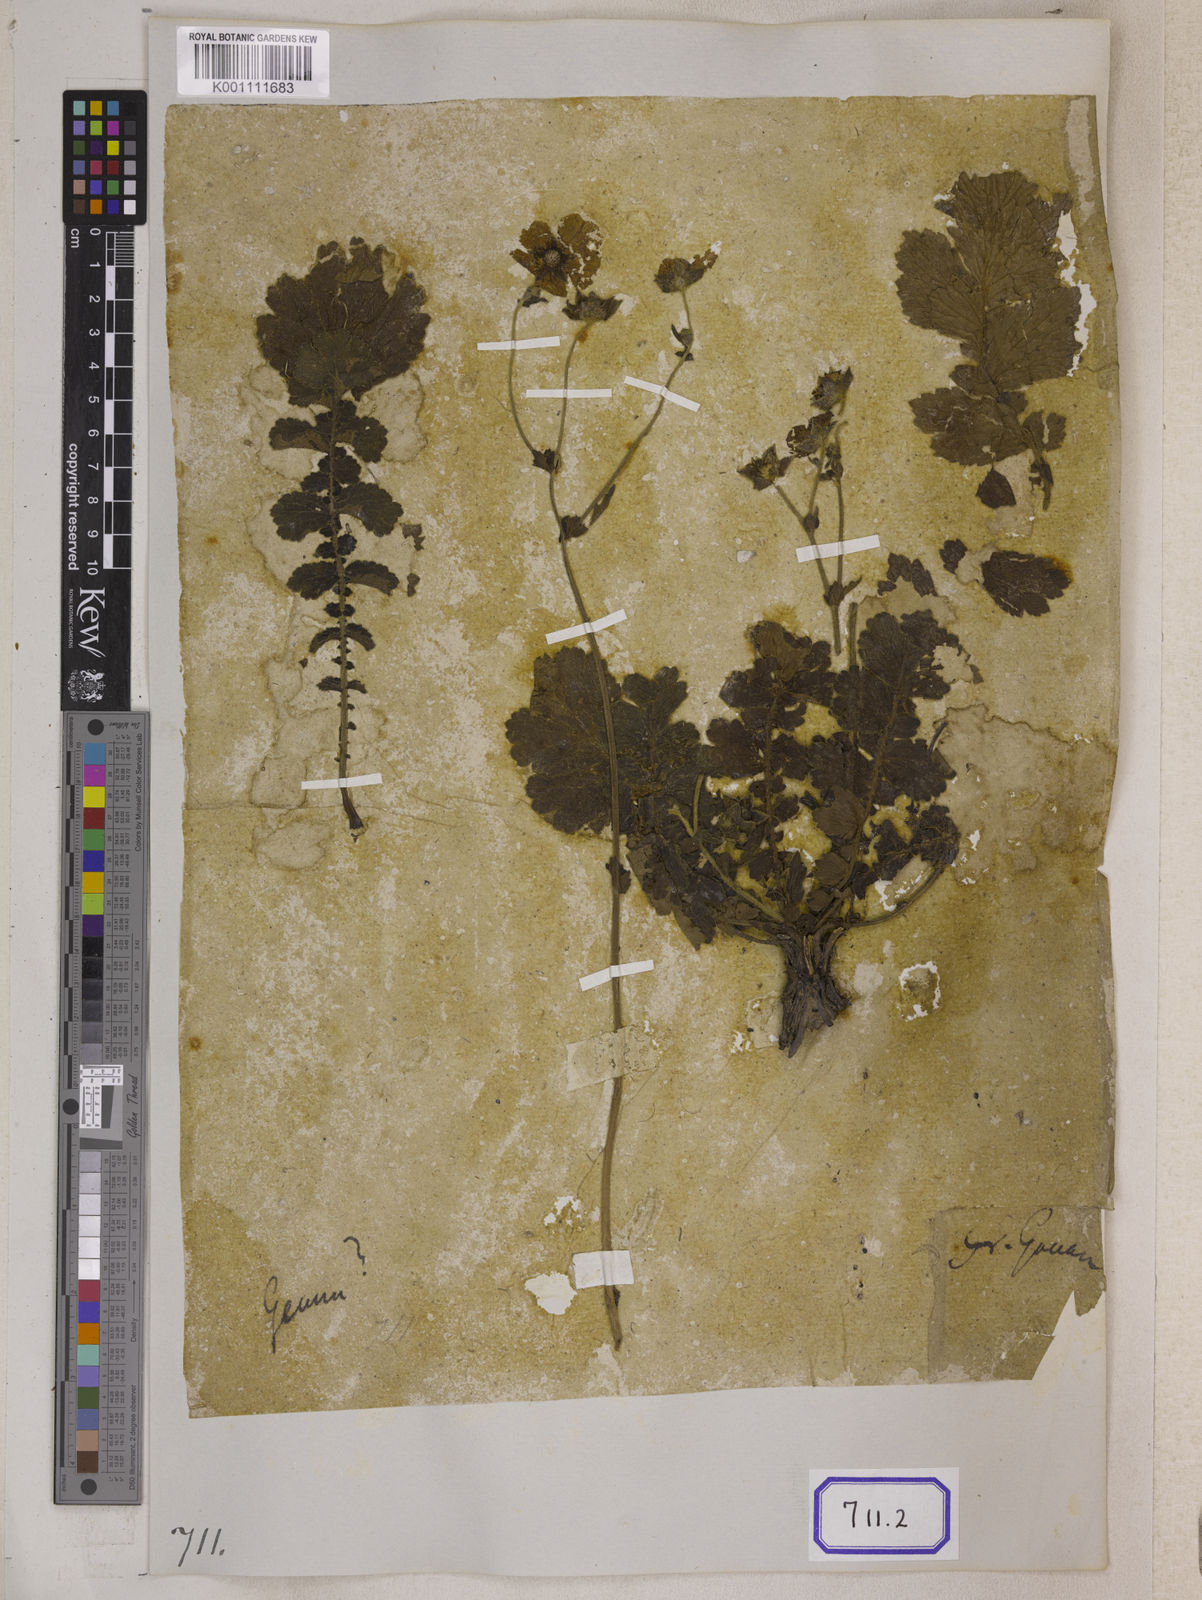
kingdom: Plantae
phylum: Tracheophyta
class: Magnoliopsida
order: Rosales
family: Rosaceae
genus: Geum
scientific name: Geum
